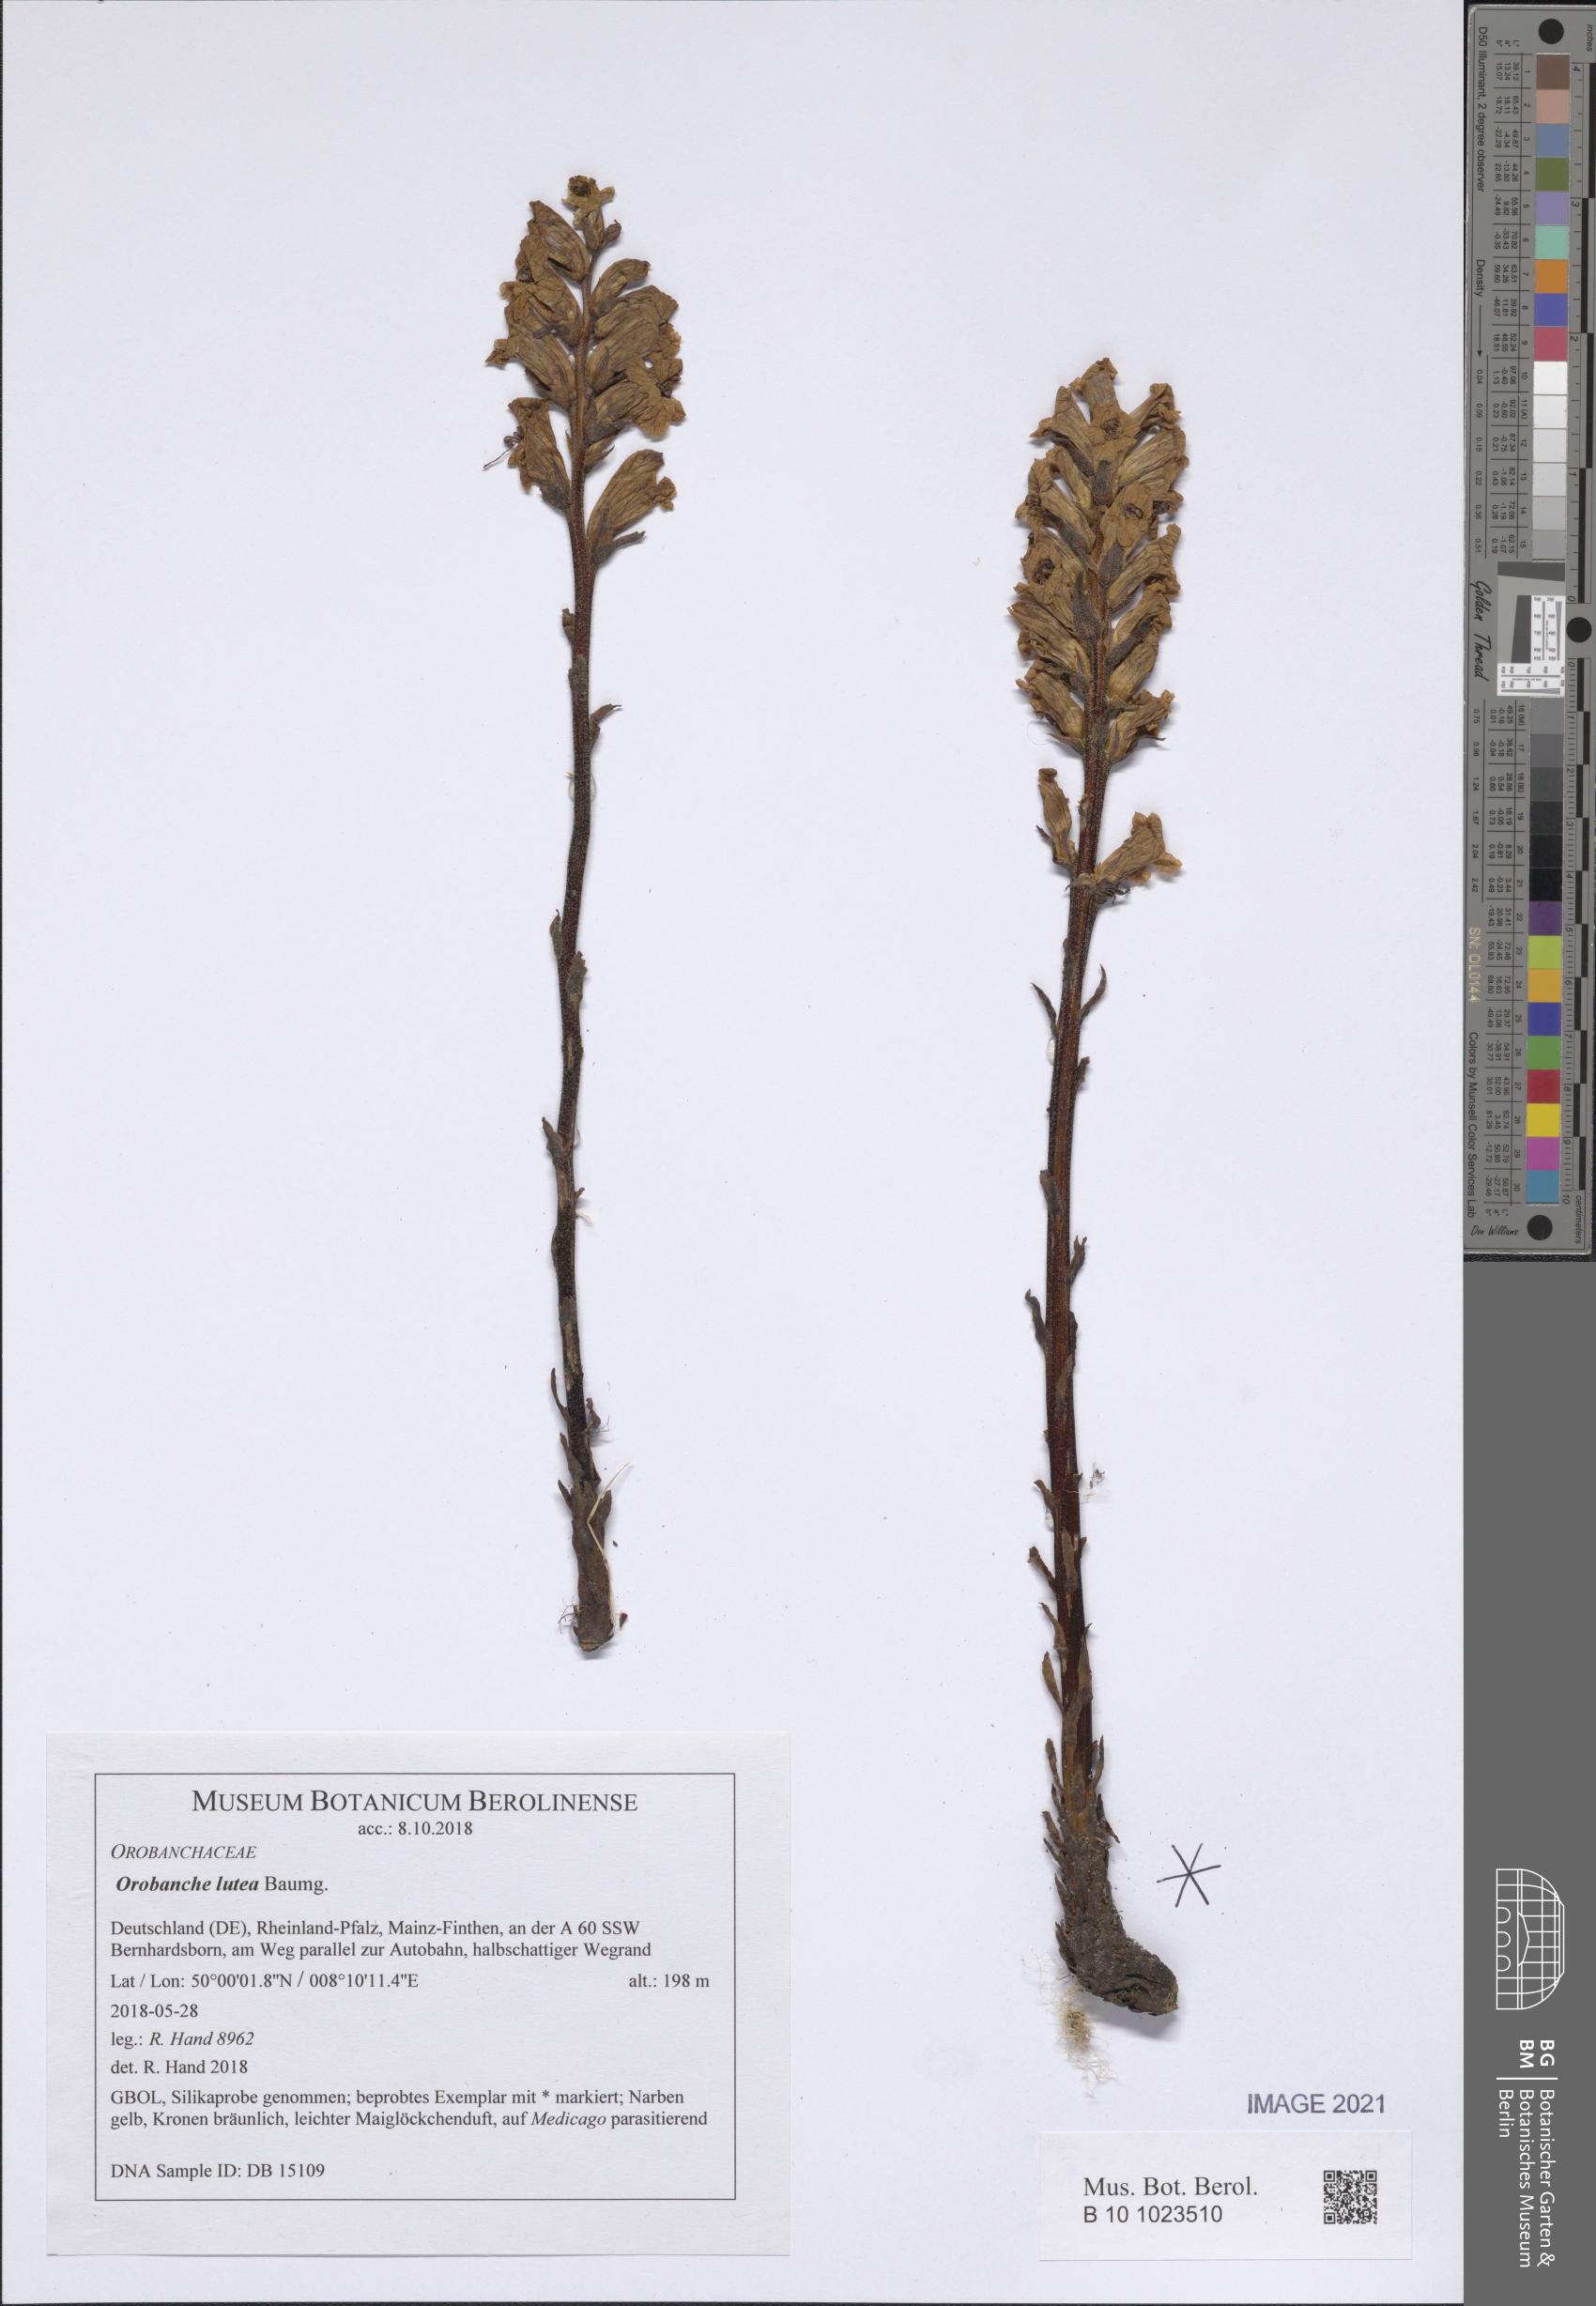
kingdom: Plantae
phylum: Tracheophyta
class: Magnoliopsida
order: Lamiales
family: Orobanchaceae
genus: Orobanche
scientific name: Orobanche lutea
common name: Yellow broomrape
